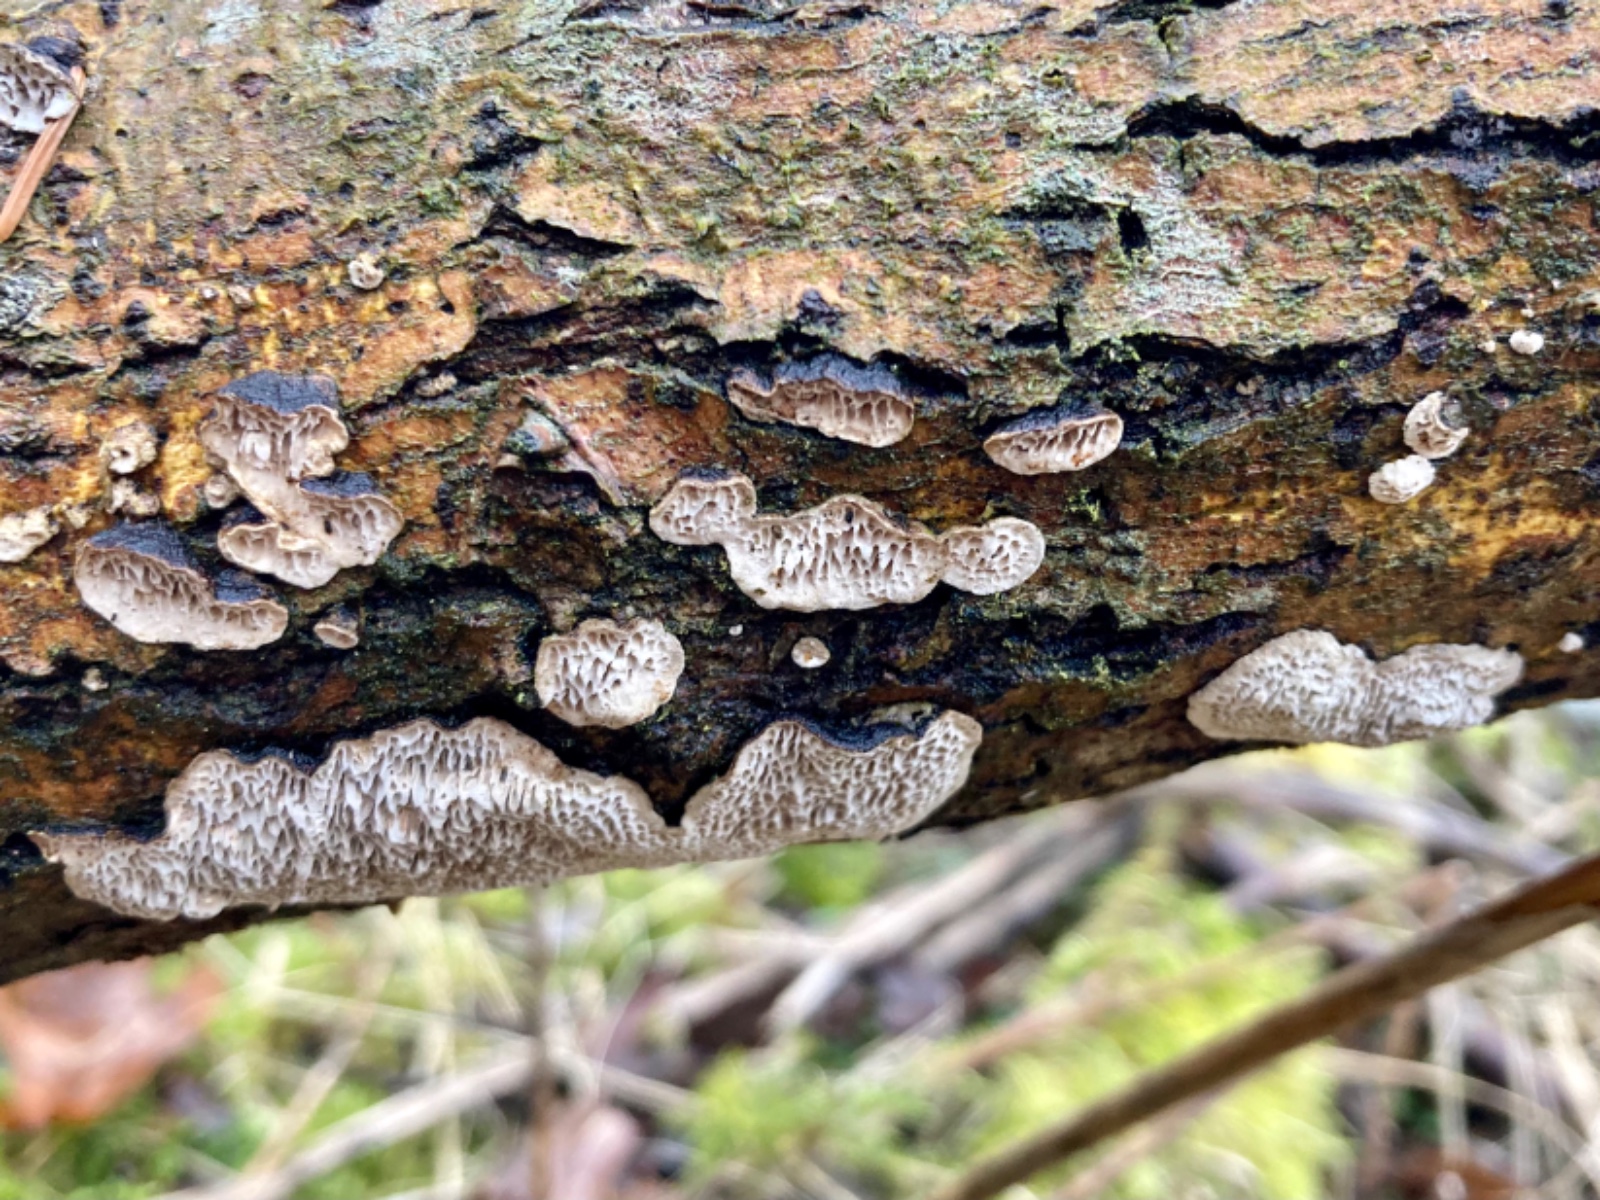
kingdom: Fungi
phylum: Basidiomycota
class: Agaricomycetes
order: Polyporales
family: Polyporaceae
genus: Podofomes
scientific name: Podofomes mollis
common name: blød begporesvamp
